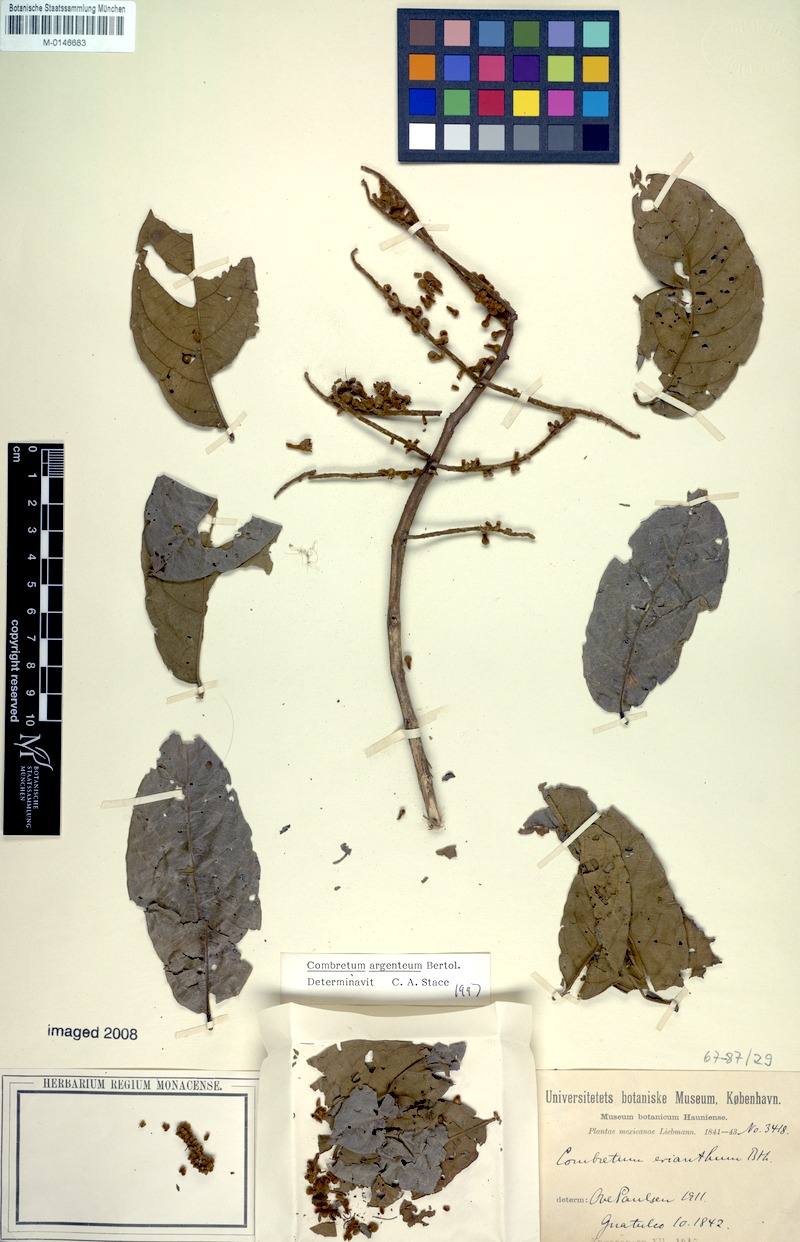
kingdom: Plantae
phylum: Tracheophyta
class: Magnoliopsida
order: Myrtales
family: Combretaceae
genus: Combretum
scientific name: Combretum argenteum
